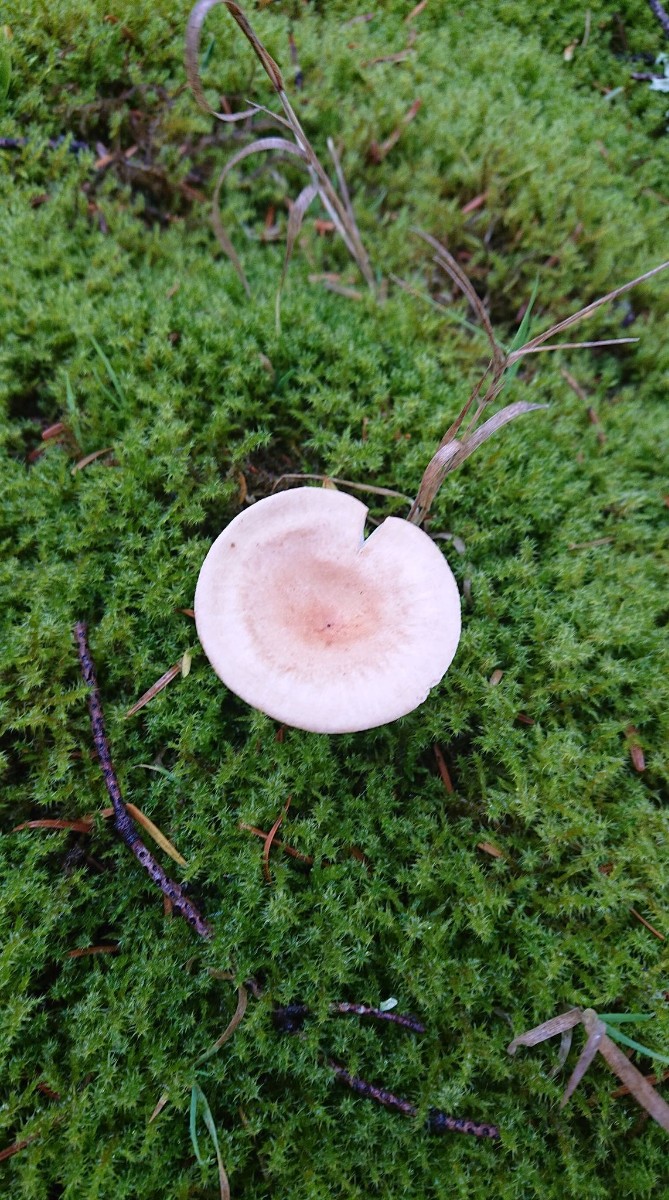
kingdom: Fungi
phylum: Basidiomycota
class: Agaricomycetes
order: Agaricales
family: Tricholomataceae
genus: Infundibulicybe
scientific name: Infundibulicybe gibba
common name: almindelig tragthat
